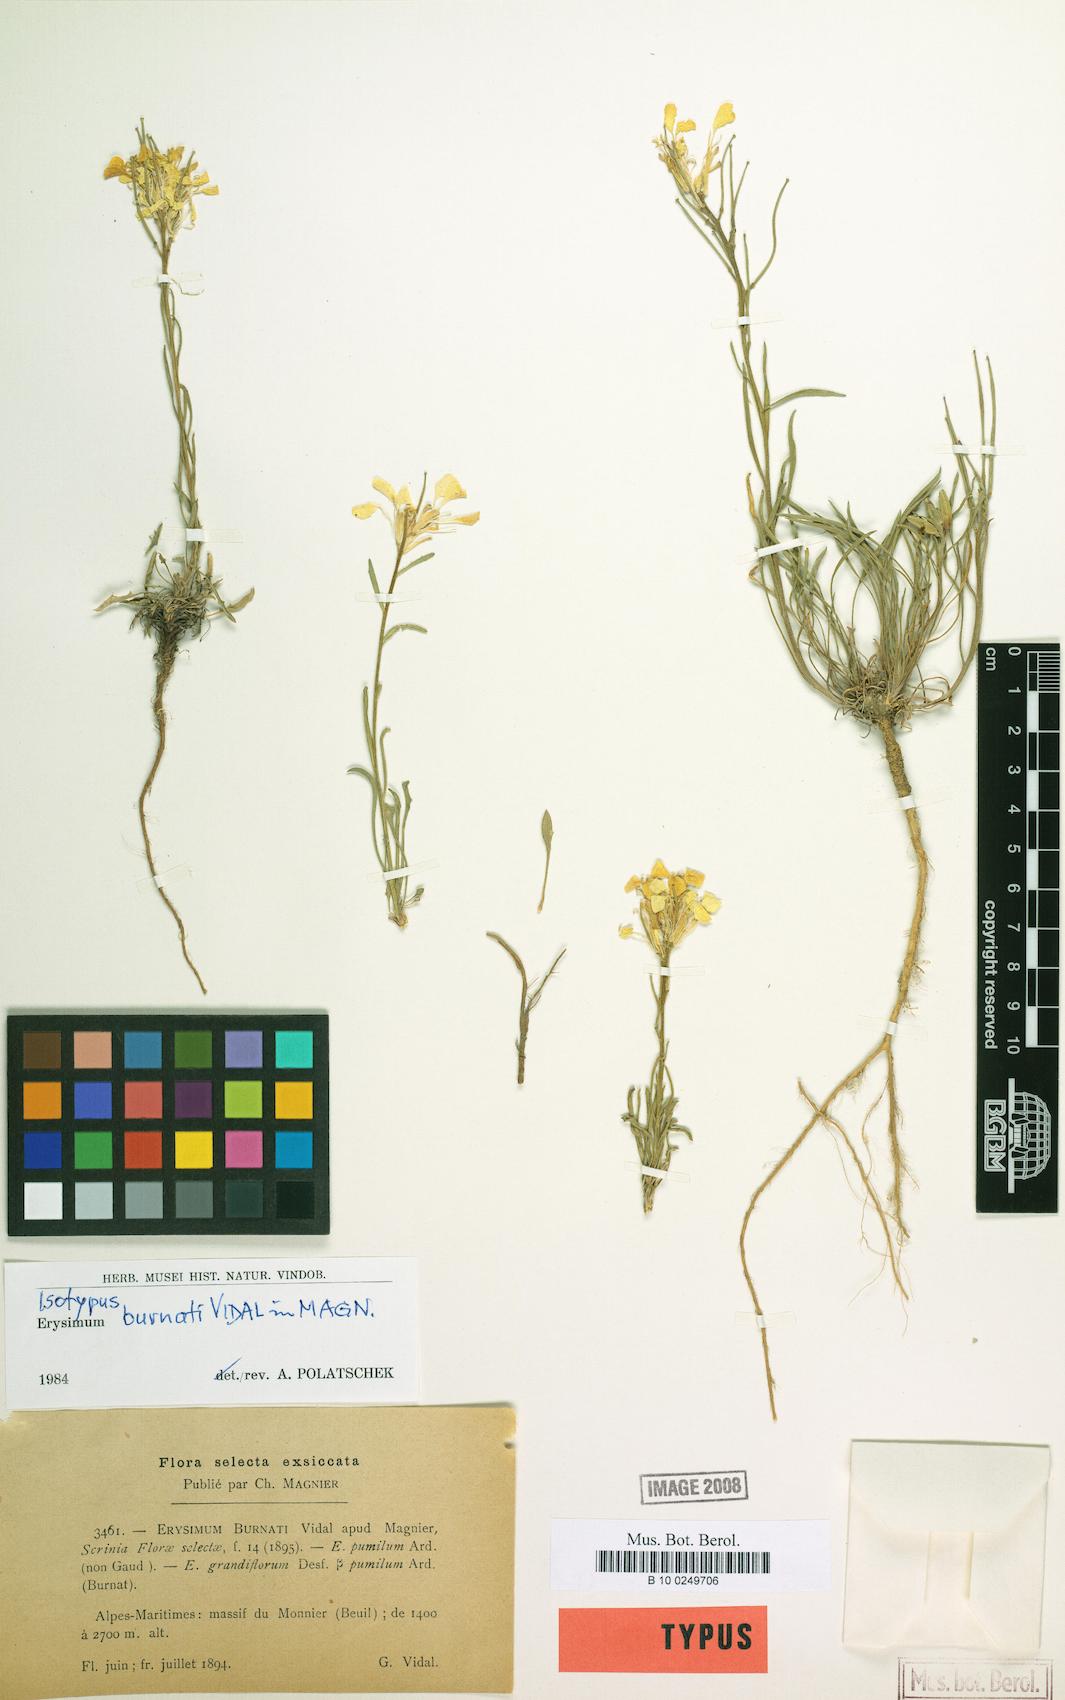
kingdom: Plantae
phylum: Tracheophyta
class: Magnoliopsida
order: Brassicales
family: Brassicaceae
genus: Erysimum
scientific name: Erysimum burnatii
